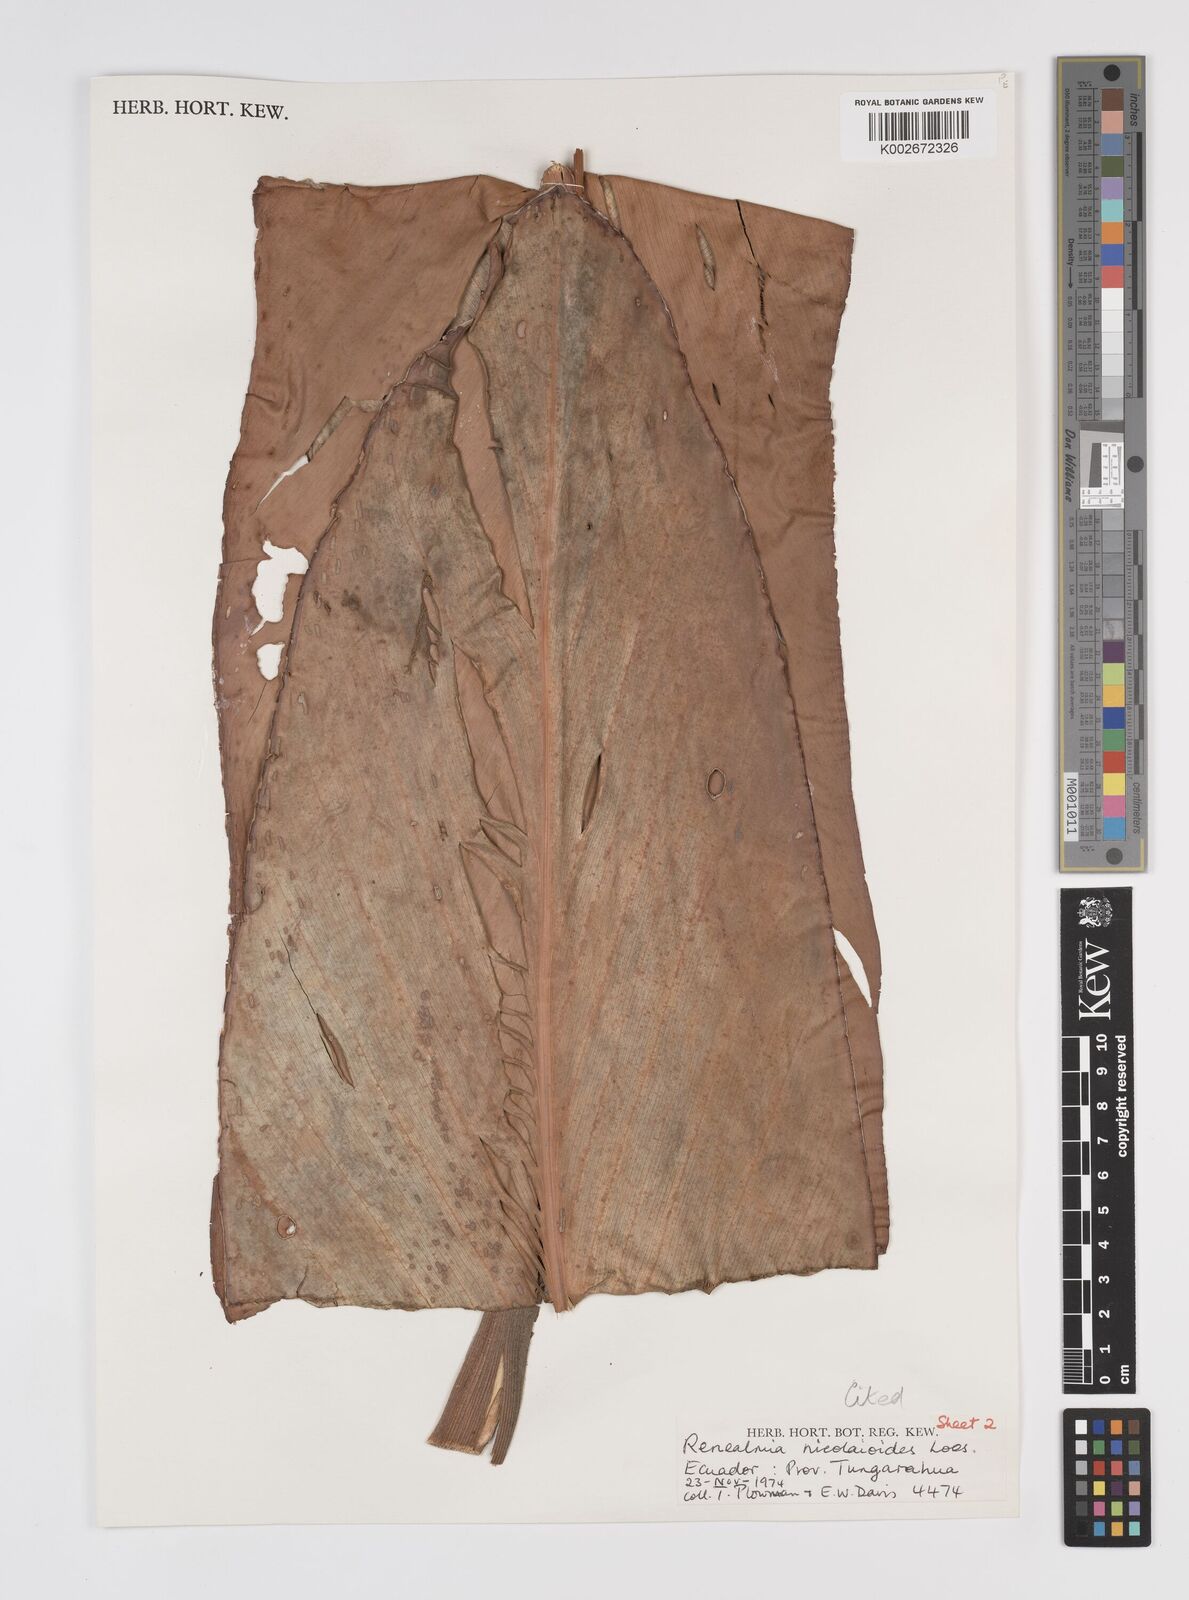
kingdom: Plantae
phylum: Tracheophyta
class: Liliopsida
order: Zingiberales
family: Zingiberaceae
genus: Renealmia
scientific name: Renealmia nicolaioides
